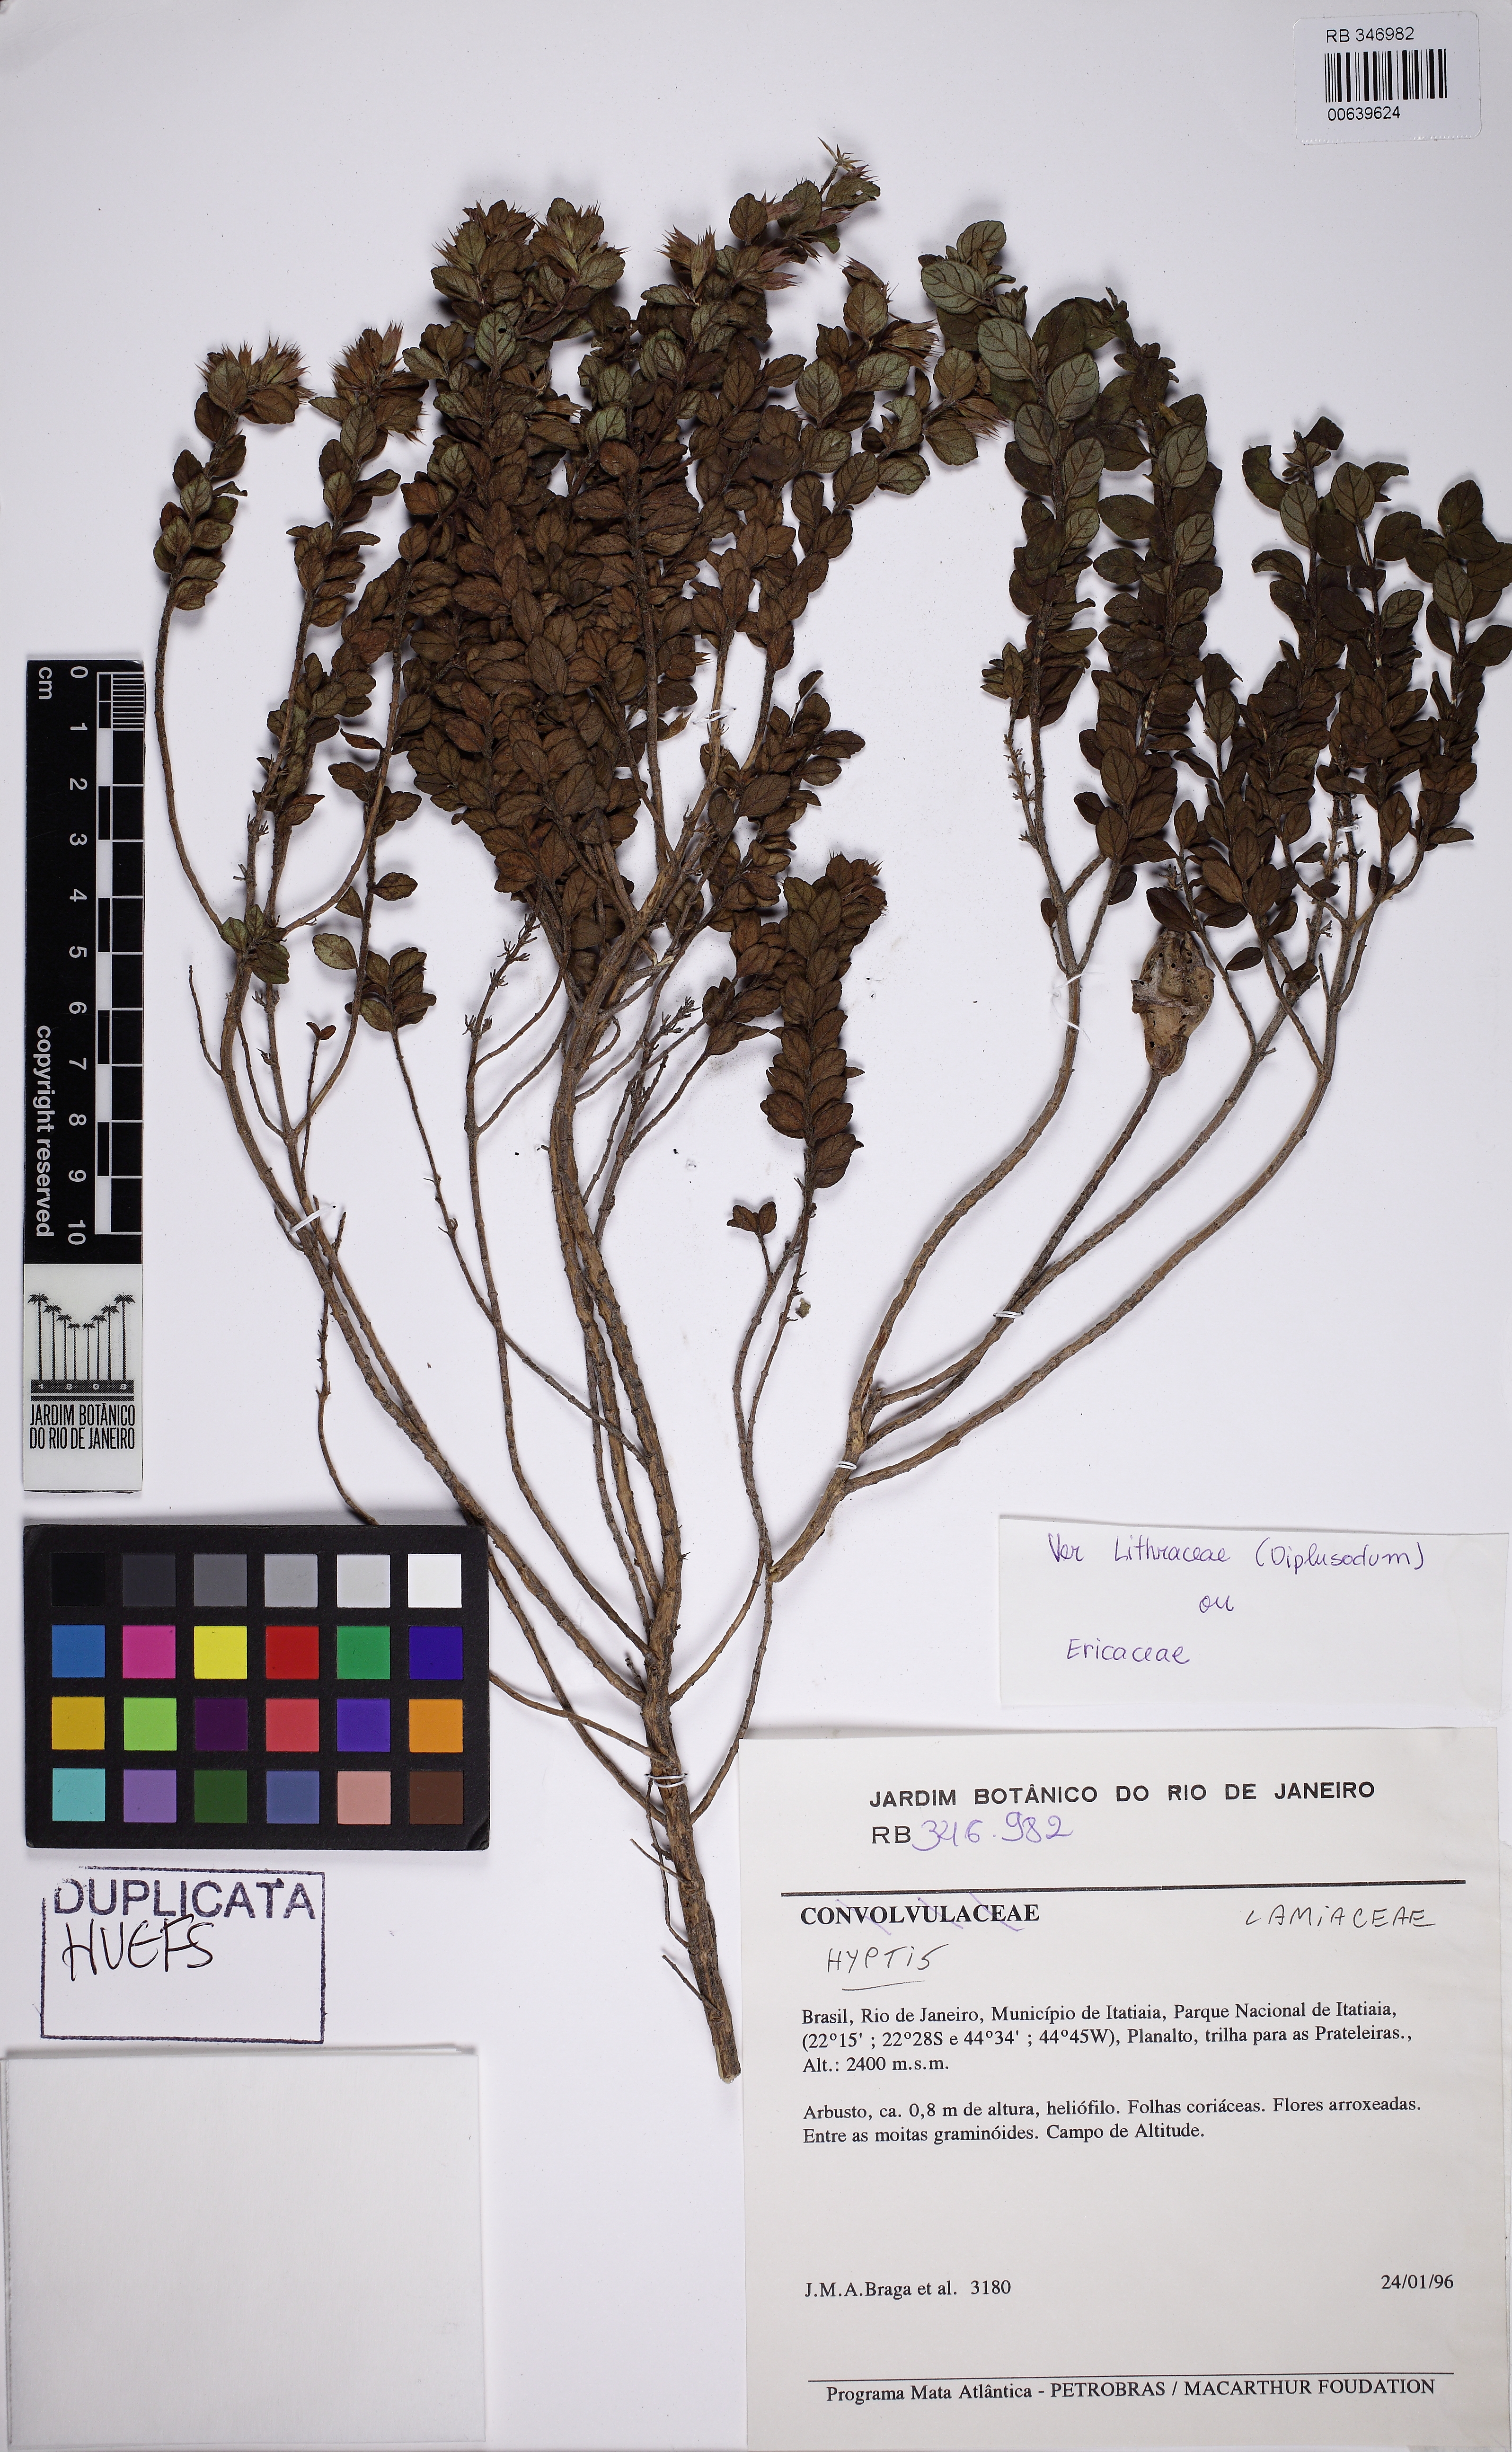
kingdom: Plantae
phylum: Tracheophyta
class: Magnoliopsida
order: Lamiales
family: Lamiaceae
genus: Hesperozygis
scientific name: Hesperozygis myrtoides
